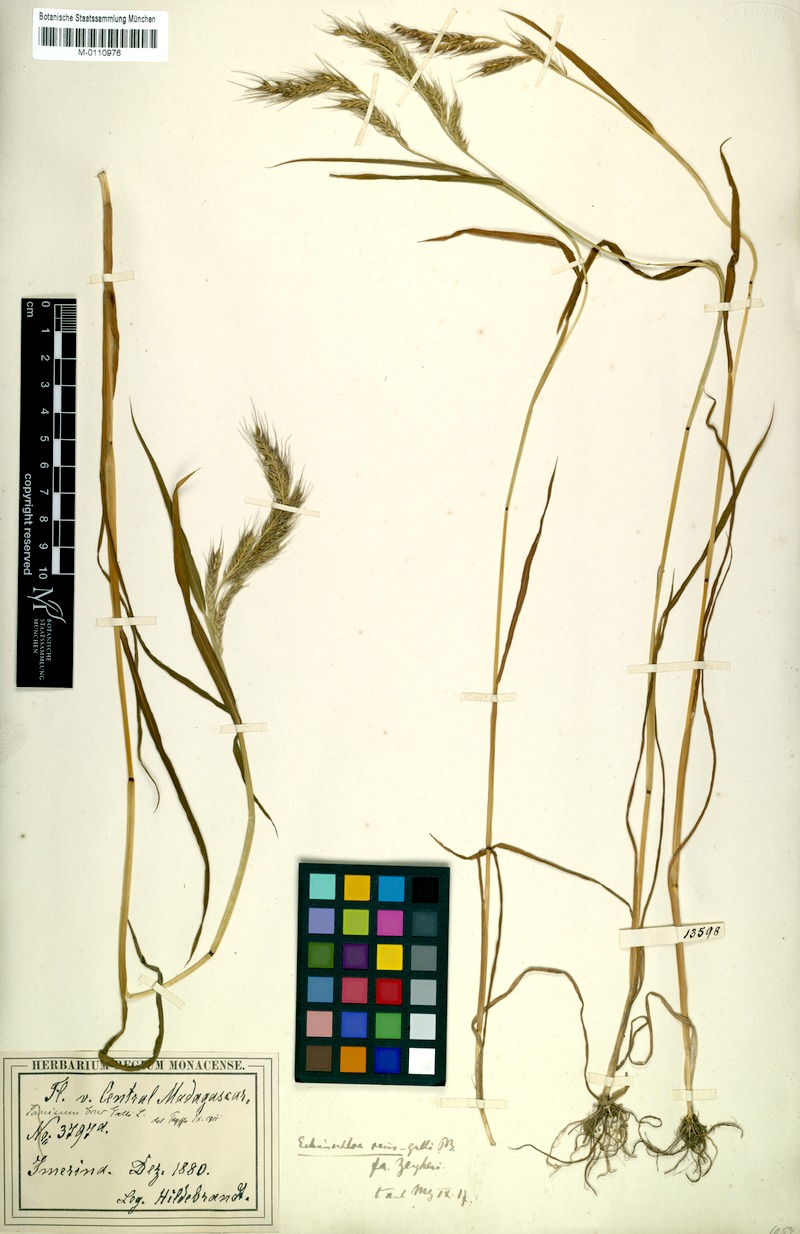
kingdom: Plantae
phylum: Tracheophyta
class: Liliopsida
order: Poales
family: Poaceae
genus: Echinochloa
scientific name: Echinochloa crus-gallii
